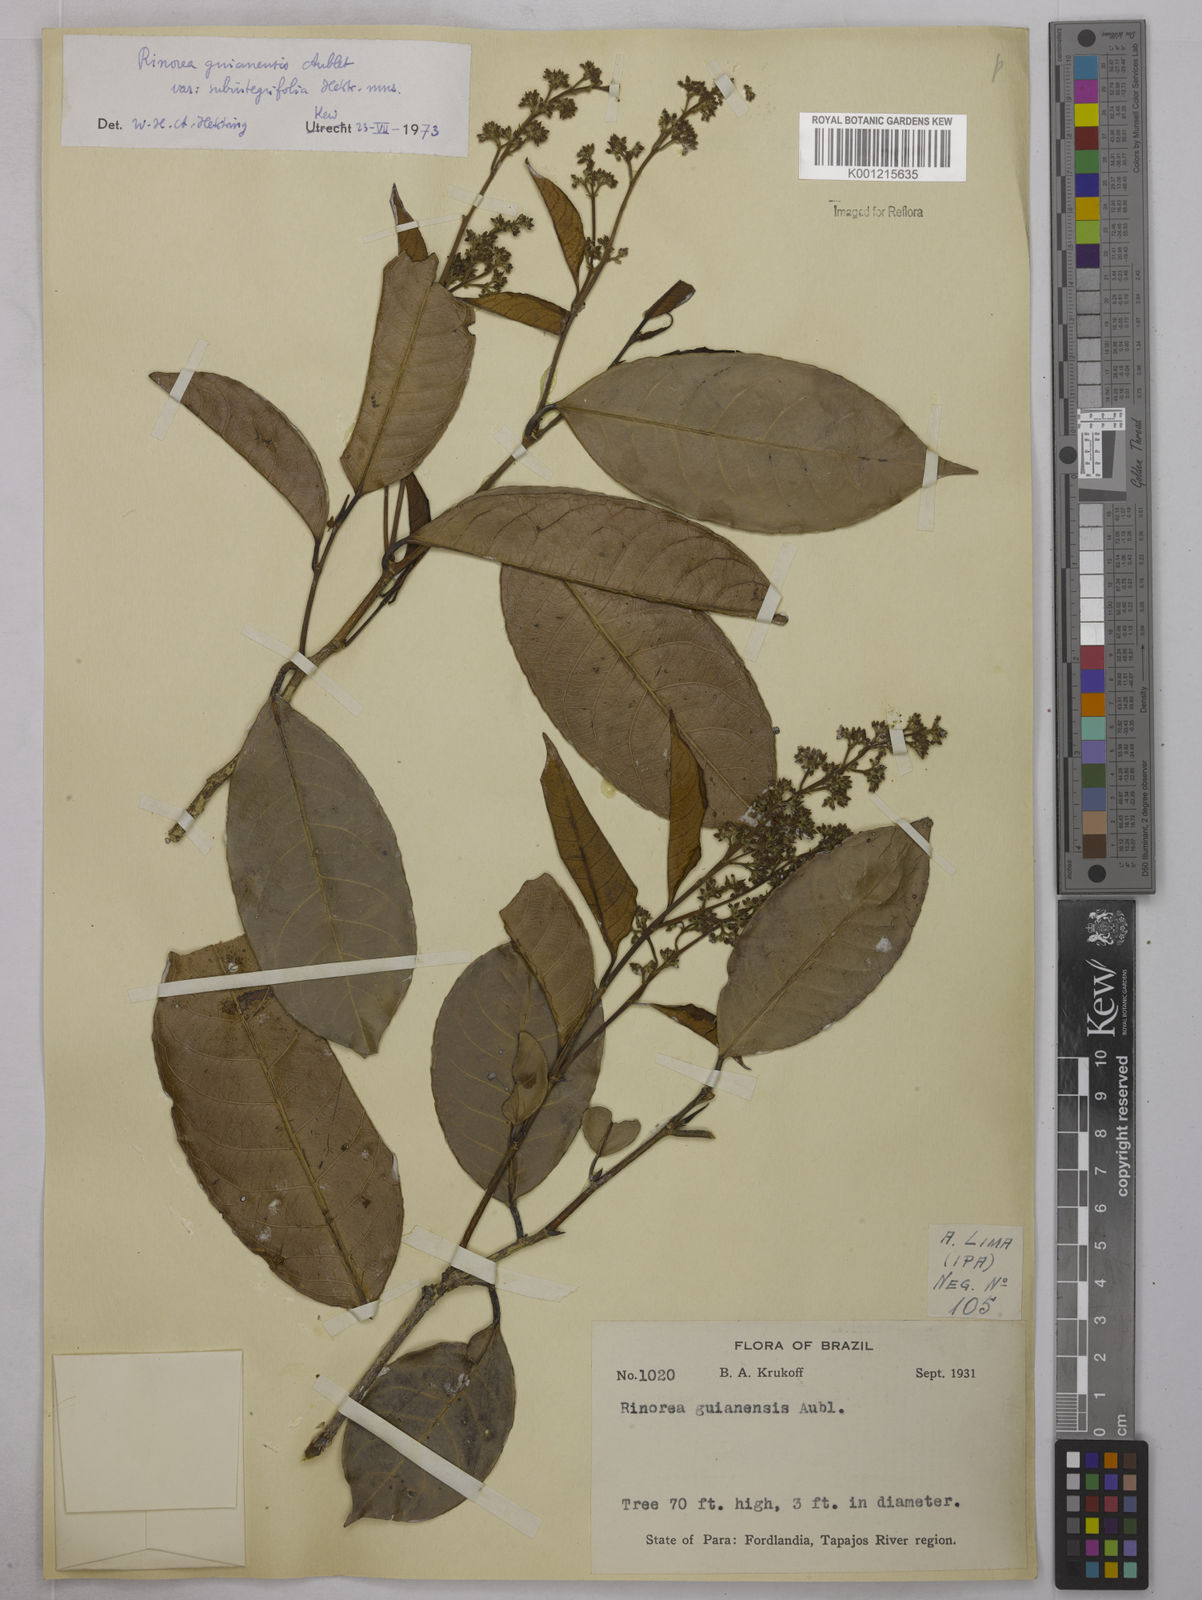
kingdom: Plantae
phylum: Tracheophyta
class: Magnoliopsida
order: Malpighiales
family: Violaceae
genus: Rinorea
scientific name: Rinorea guianensis
